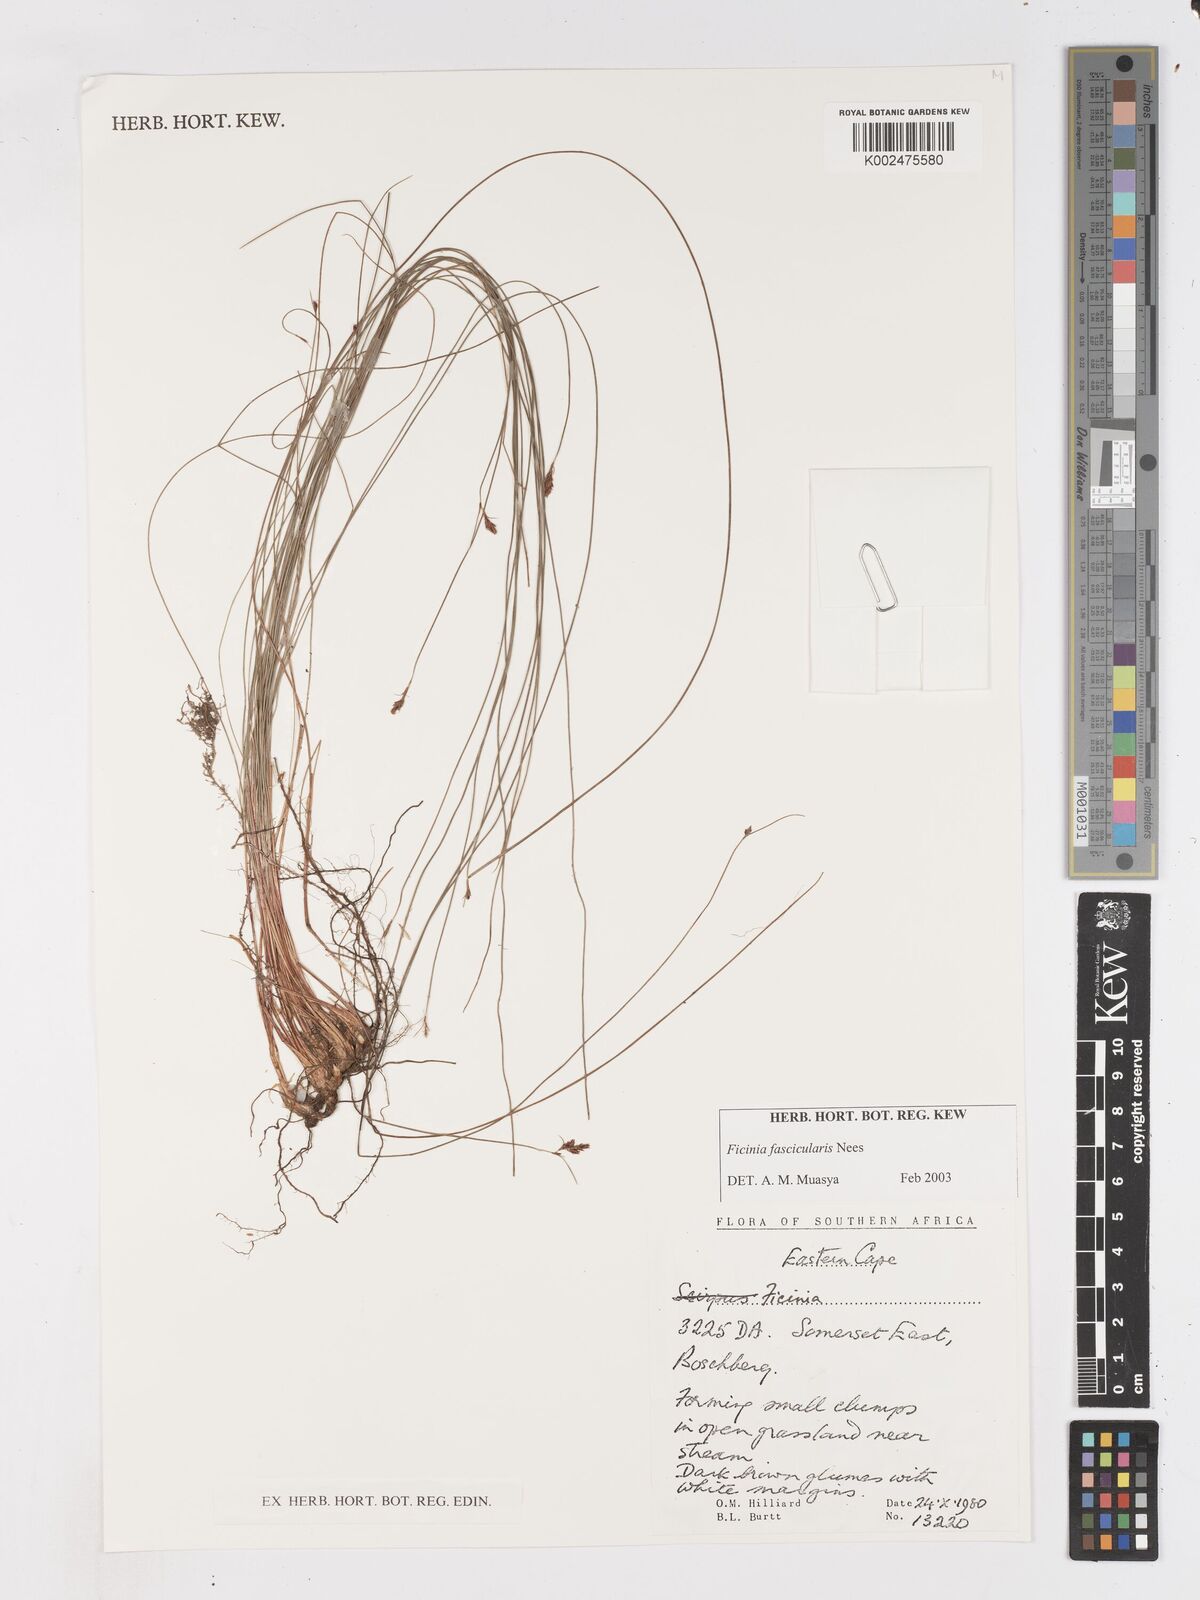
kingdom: Plantae
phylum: Tracheophyta
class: Liliopsida
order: Poales
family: Cyperaceae
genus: Ficinia
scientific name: Ficinia fascicularis
